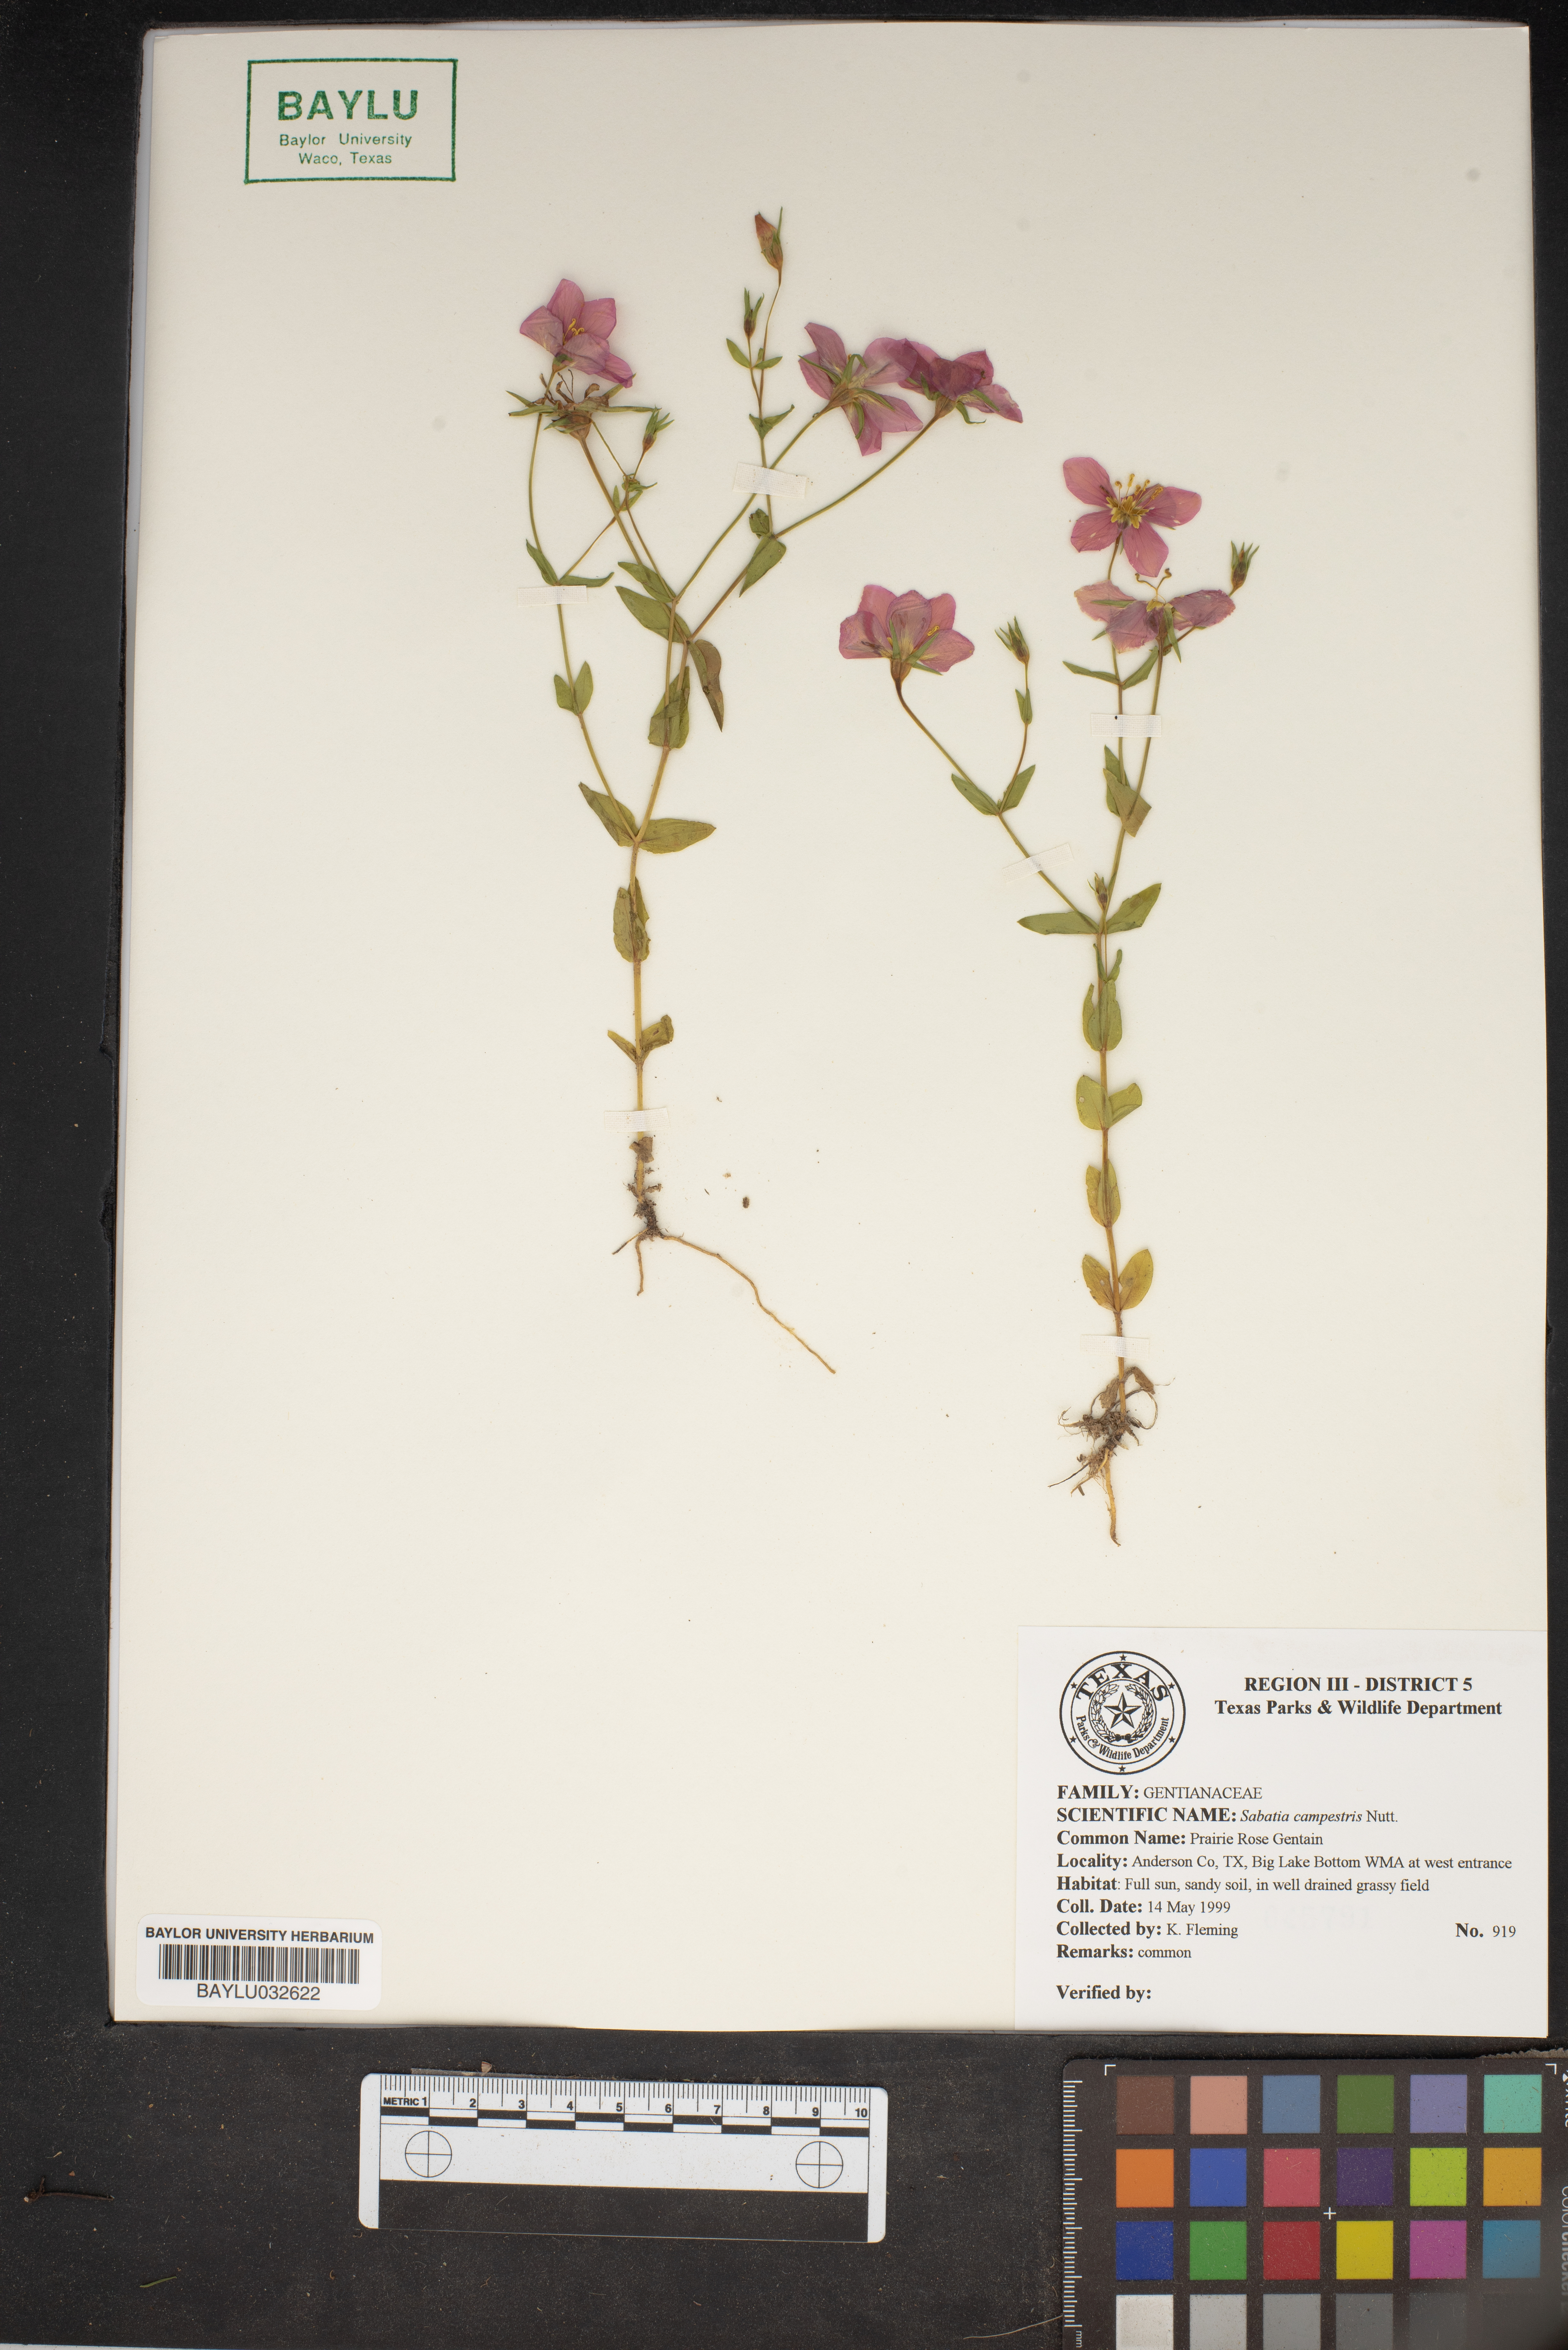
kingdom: Plantae
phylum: Tracheophyta
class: Magnoliopsida
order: Gentianales
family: Gentianaceae
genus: Sabatia
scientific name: Sabatia campestris
